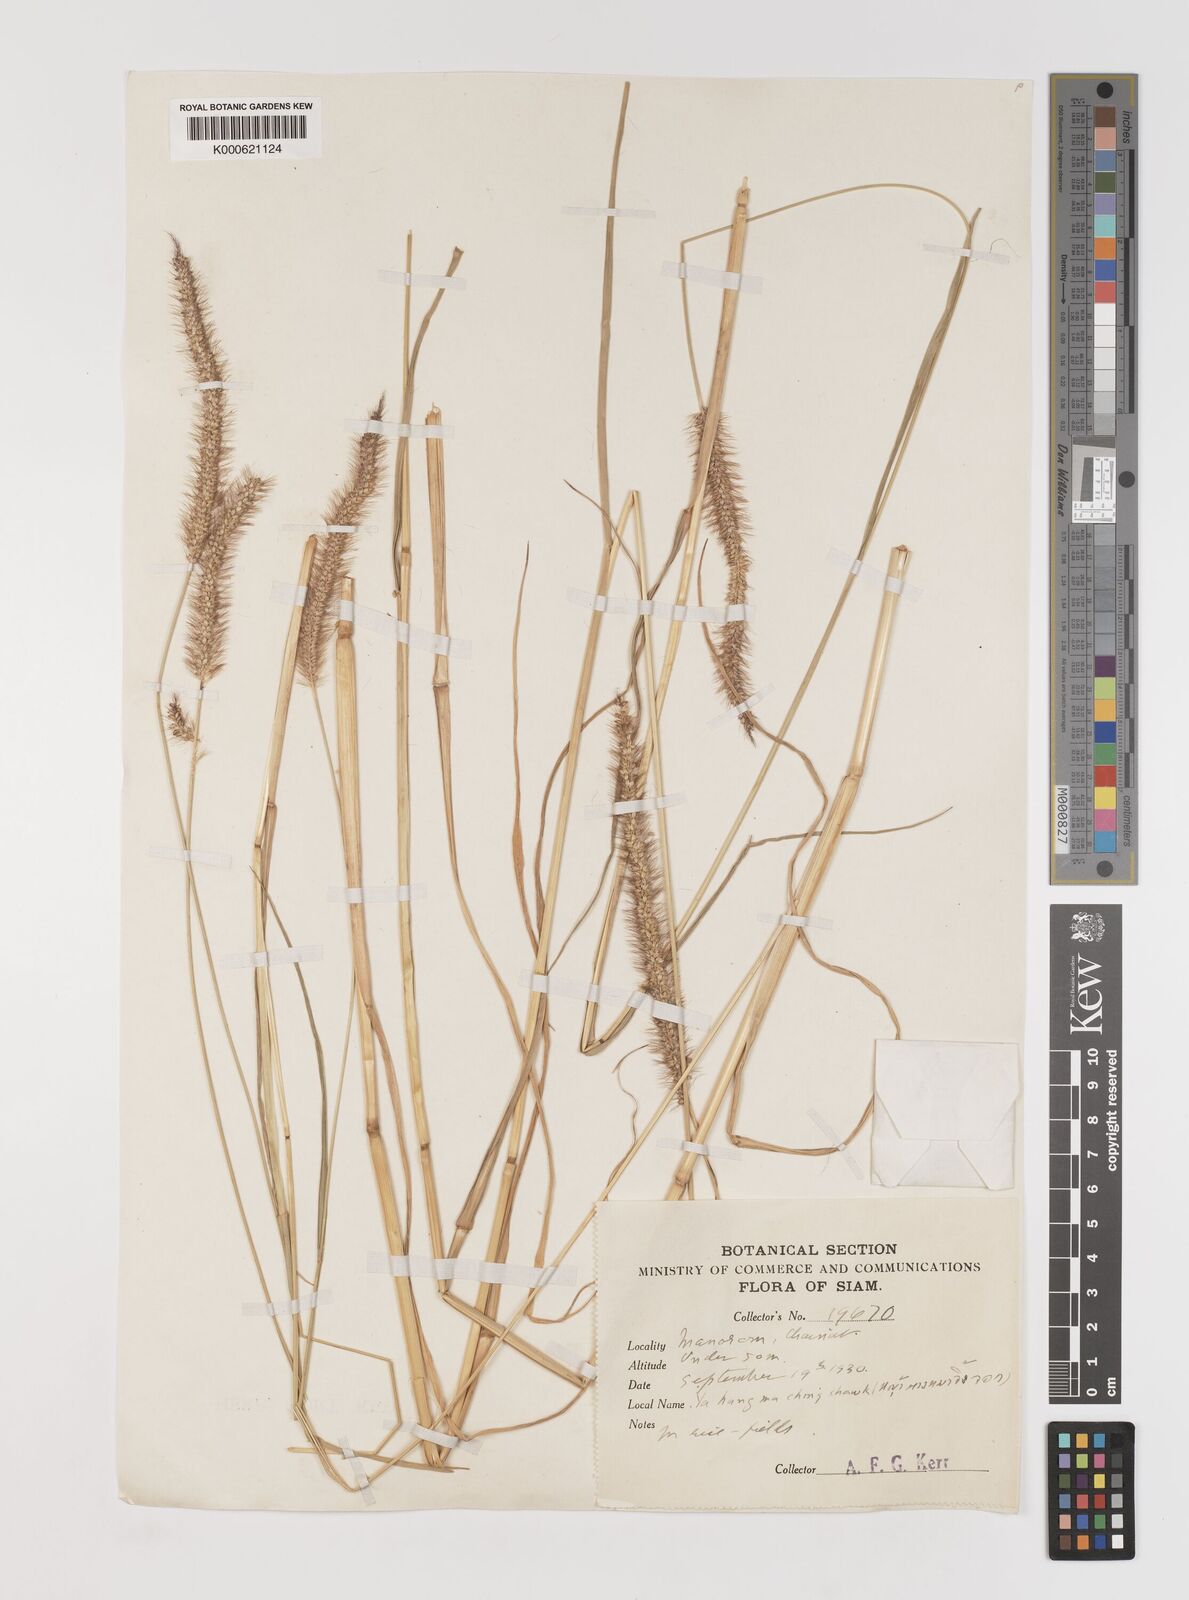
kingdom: Plantae
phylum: Tracheophyta
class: Liliopsida
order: Poales
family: Poaceae
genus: Setaria
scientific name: Setaria italica
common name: Foxtail bristle-grass
